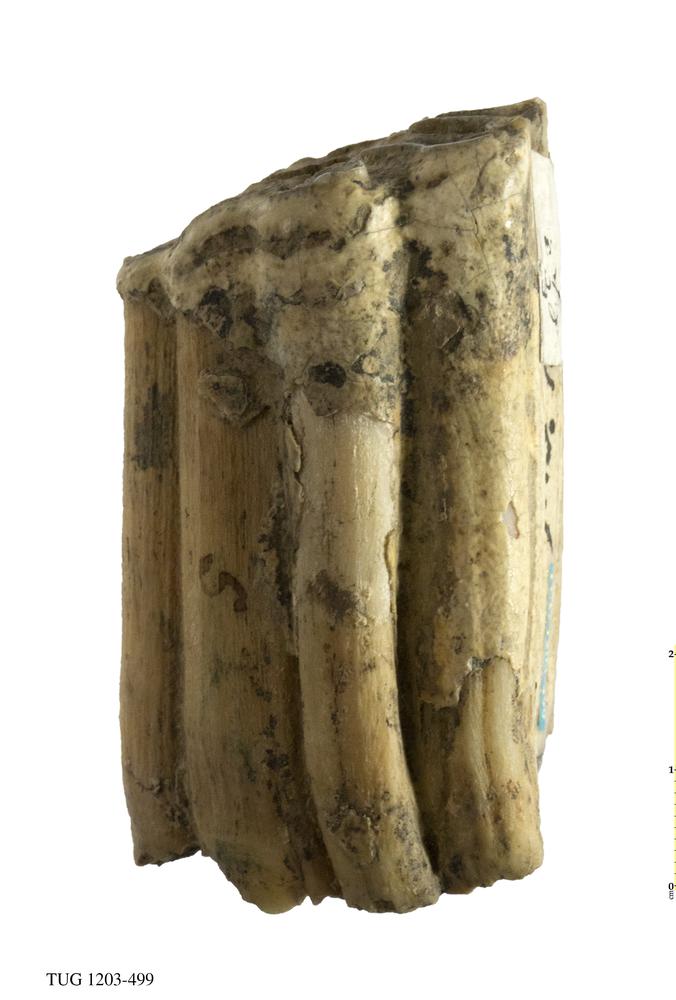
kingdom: Animalia
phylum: Chordata
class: Mammalia
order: Perissodactyla
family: Equidae
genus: Equus
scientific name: Equus
